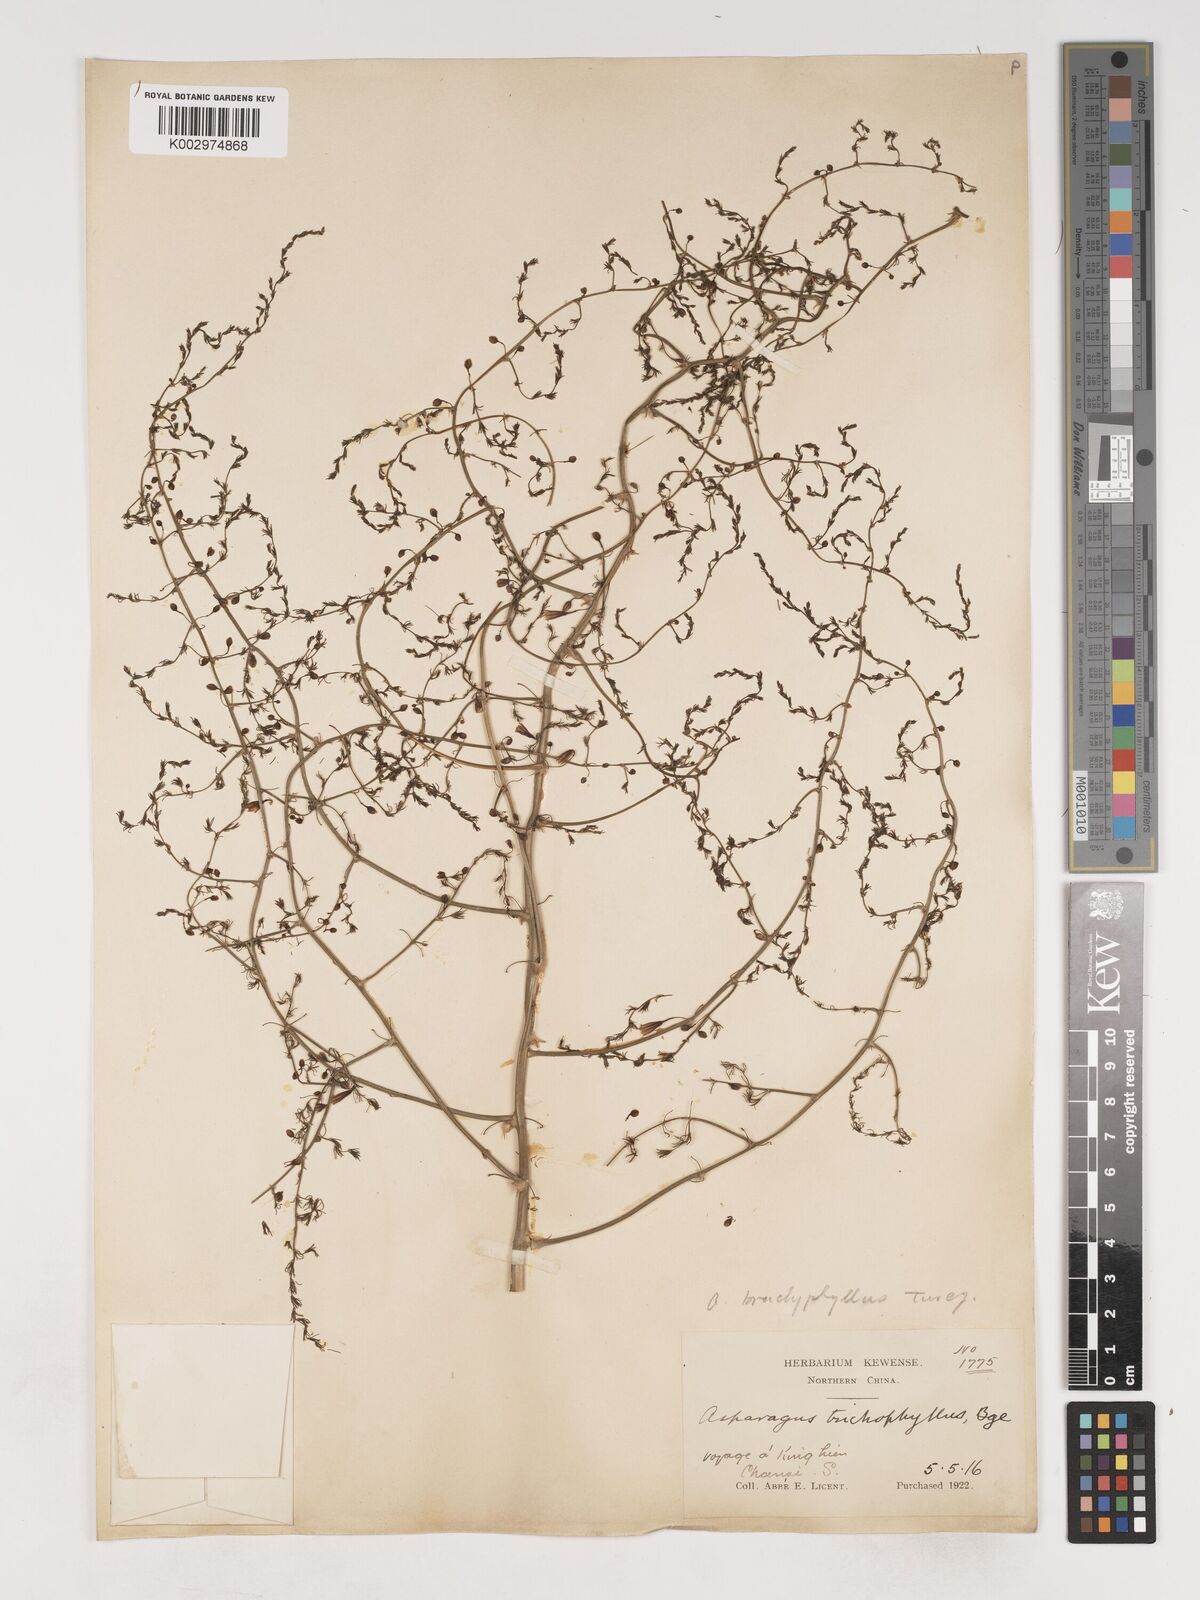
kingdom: Plantae
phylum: Tracheophyta
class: Liliopsida
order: Asparagales
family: Asparagaceae
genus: Asparagus
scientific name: Asparagus trichophyllus
